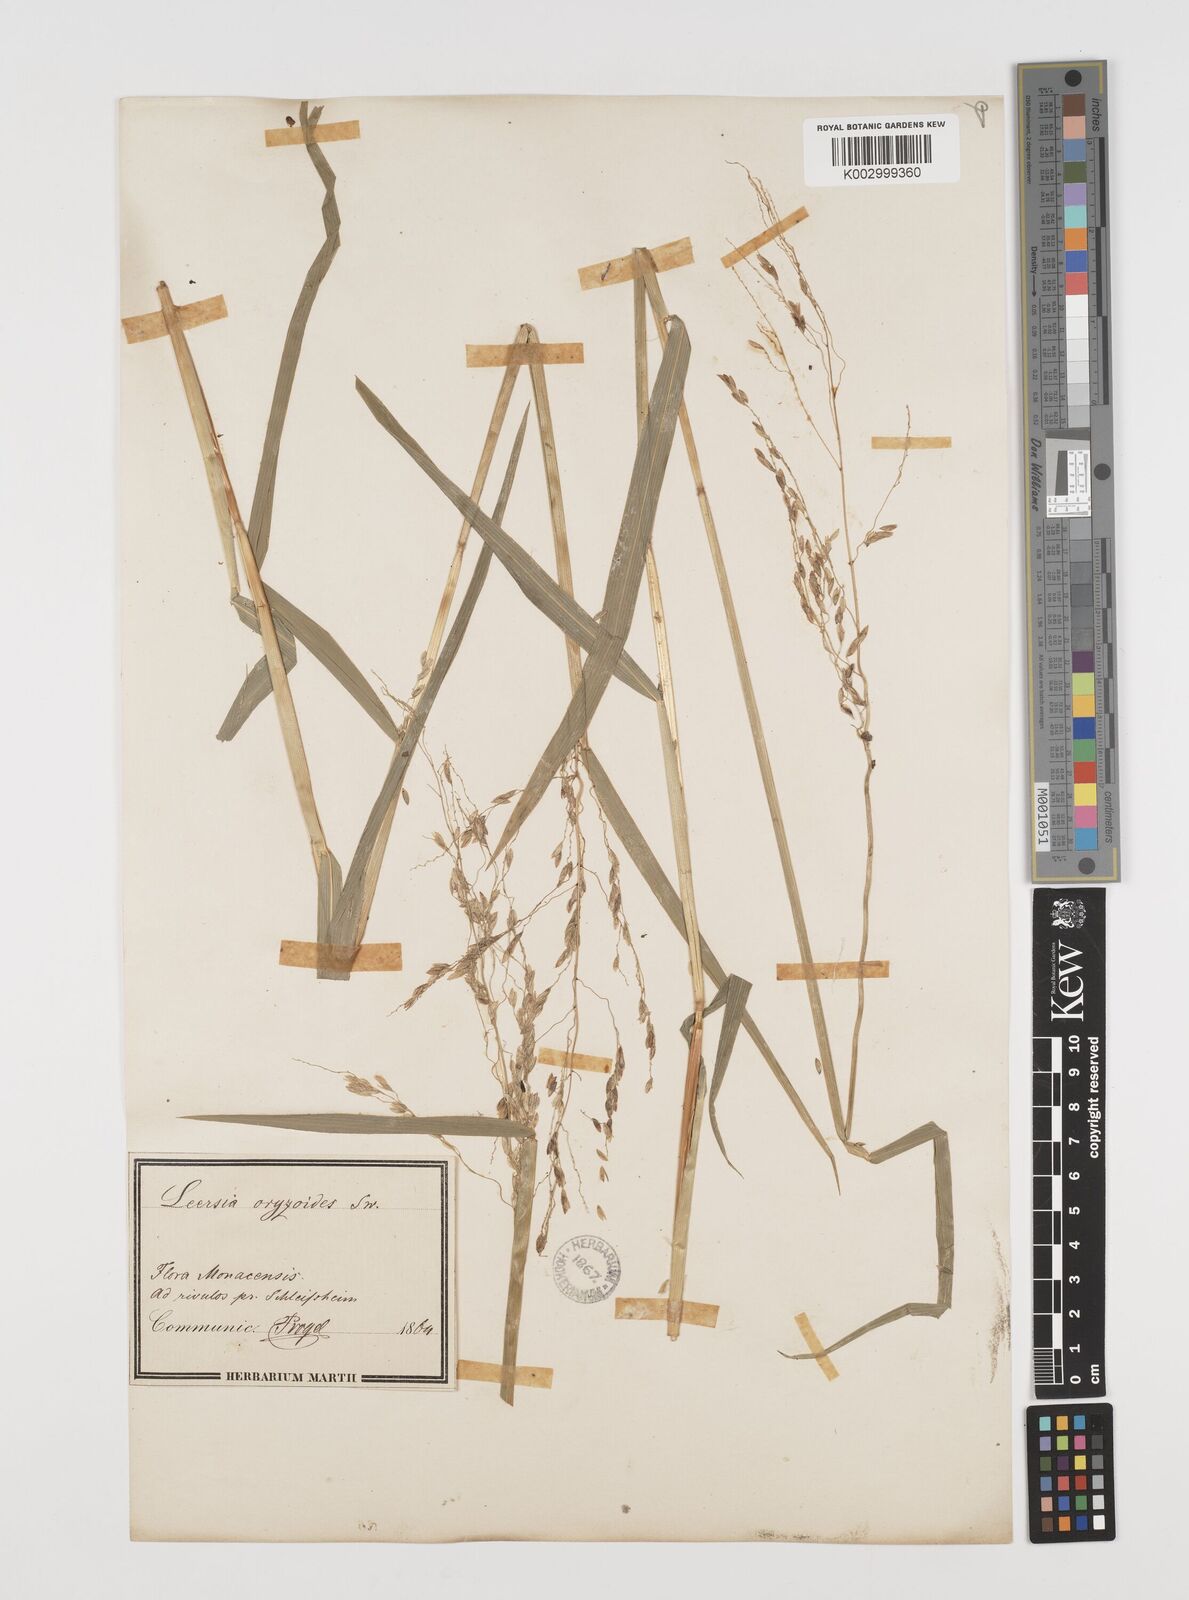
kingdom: Plantae
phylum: Tracheophyta
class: Liliopsida
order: Poales
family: Poaceae
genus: Leersia
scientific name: Leersia oryzoides
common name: Cut-grass
